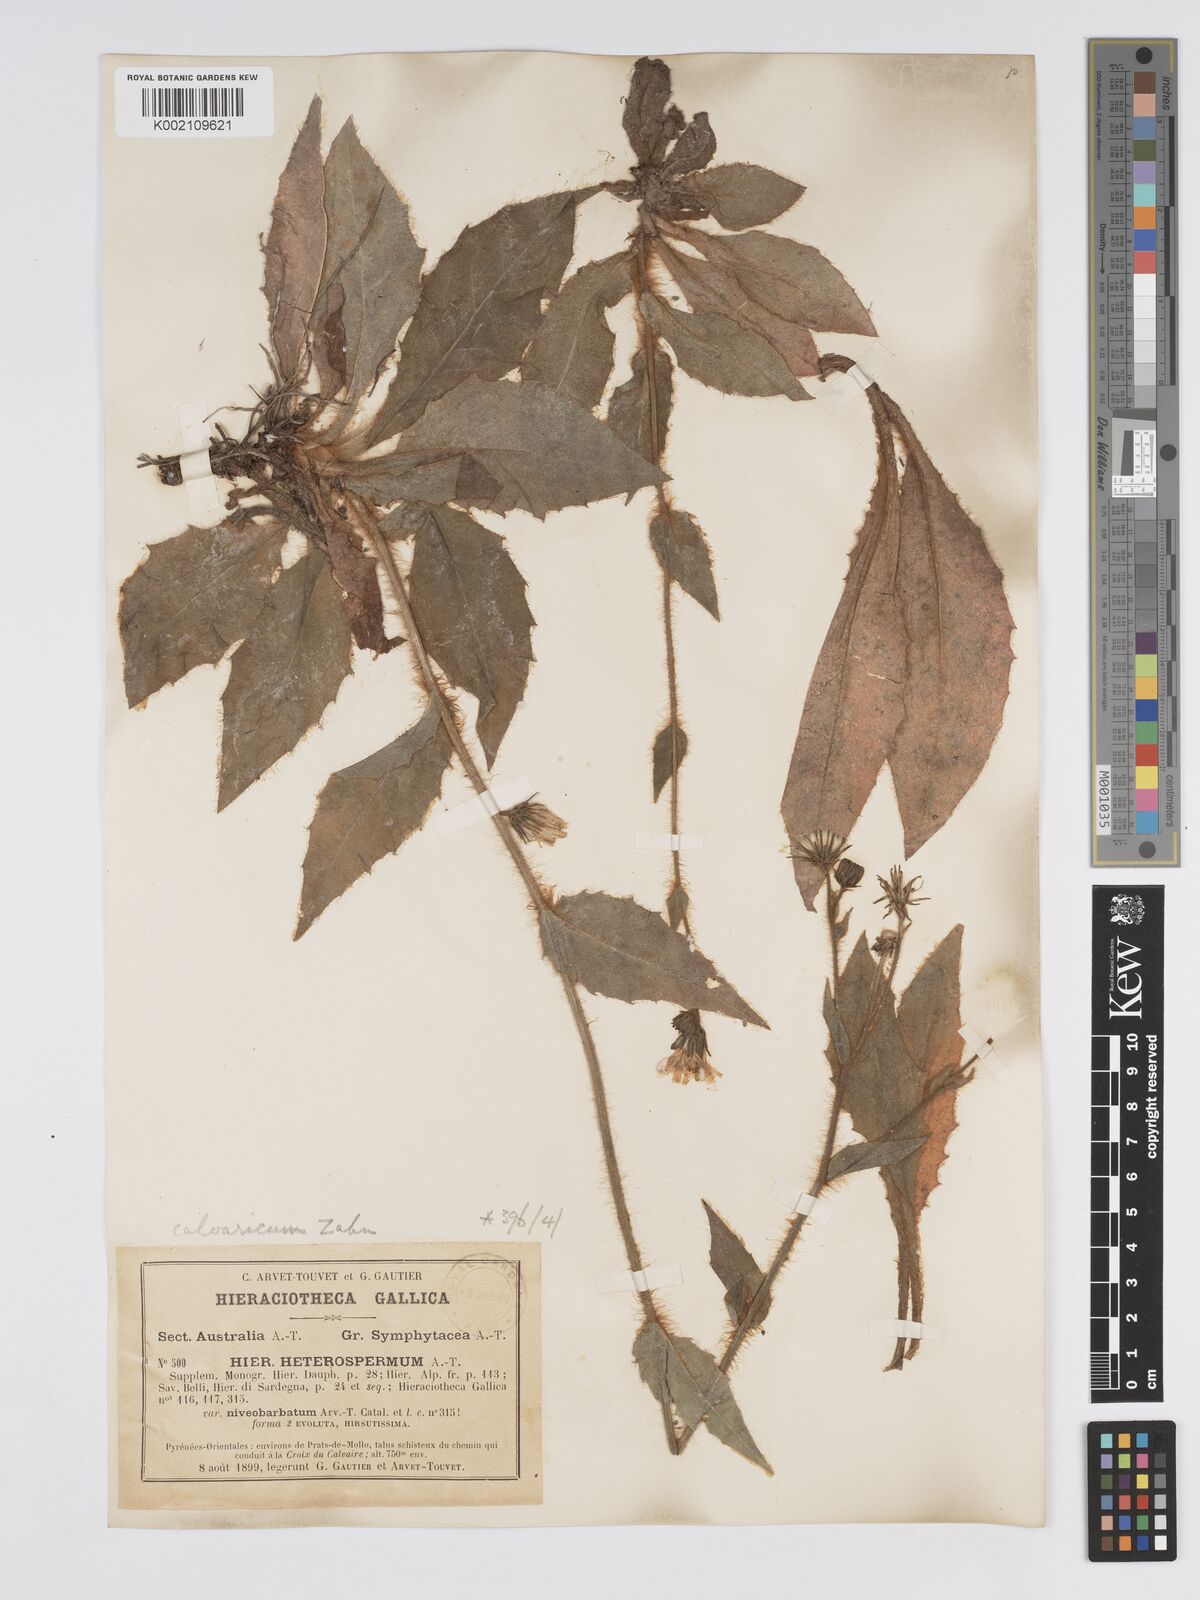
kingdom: Plantae
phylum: Tracheophyta
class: Magnoliopsida
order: Asterales
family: Asteraceae
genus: Hieracium
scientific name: Hieracium compositum
